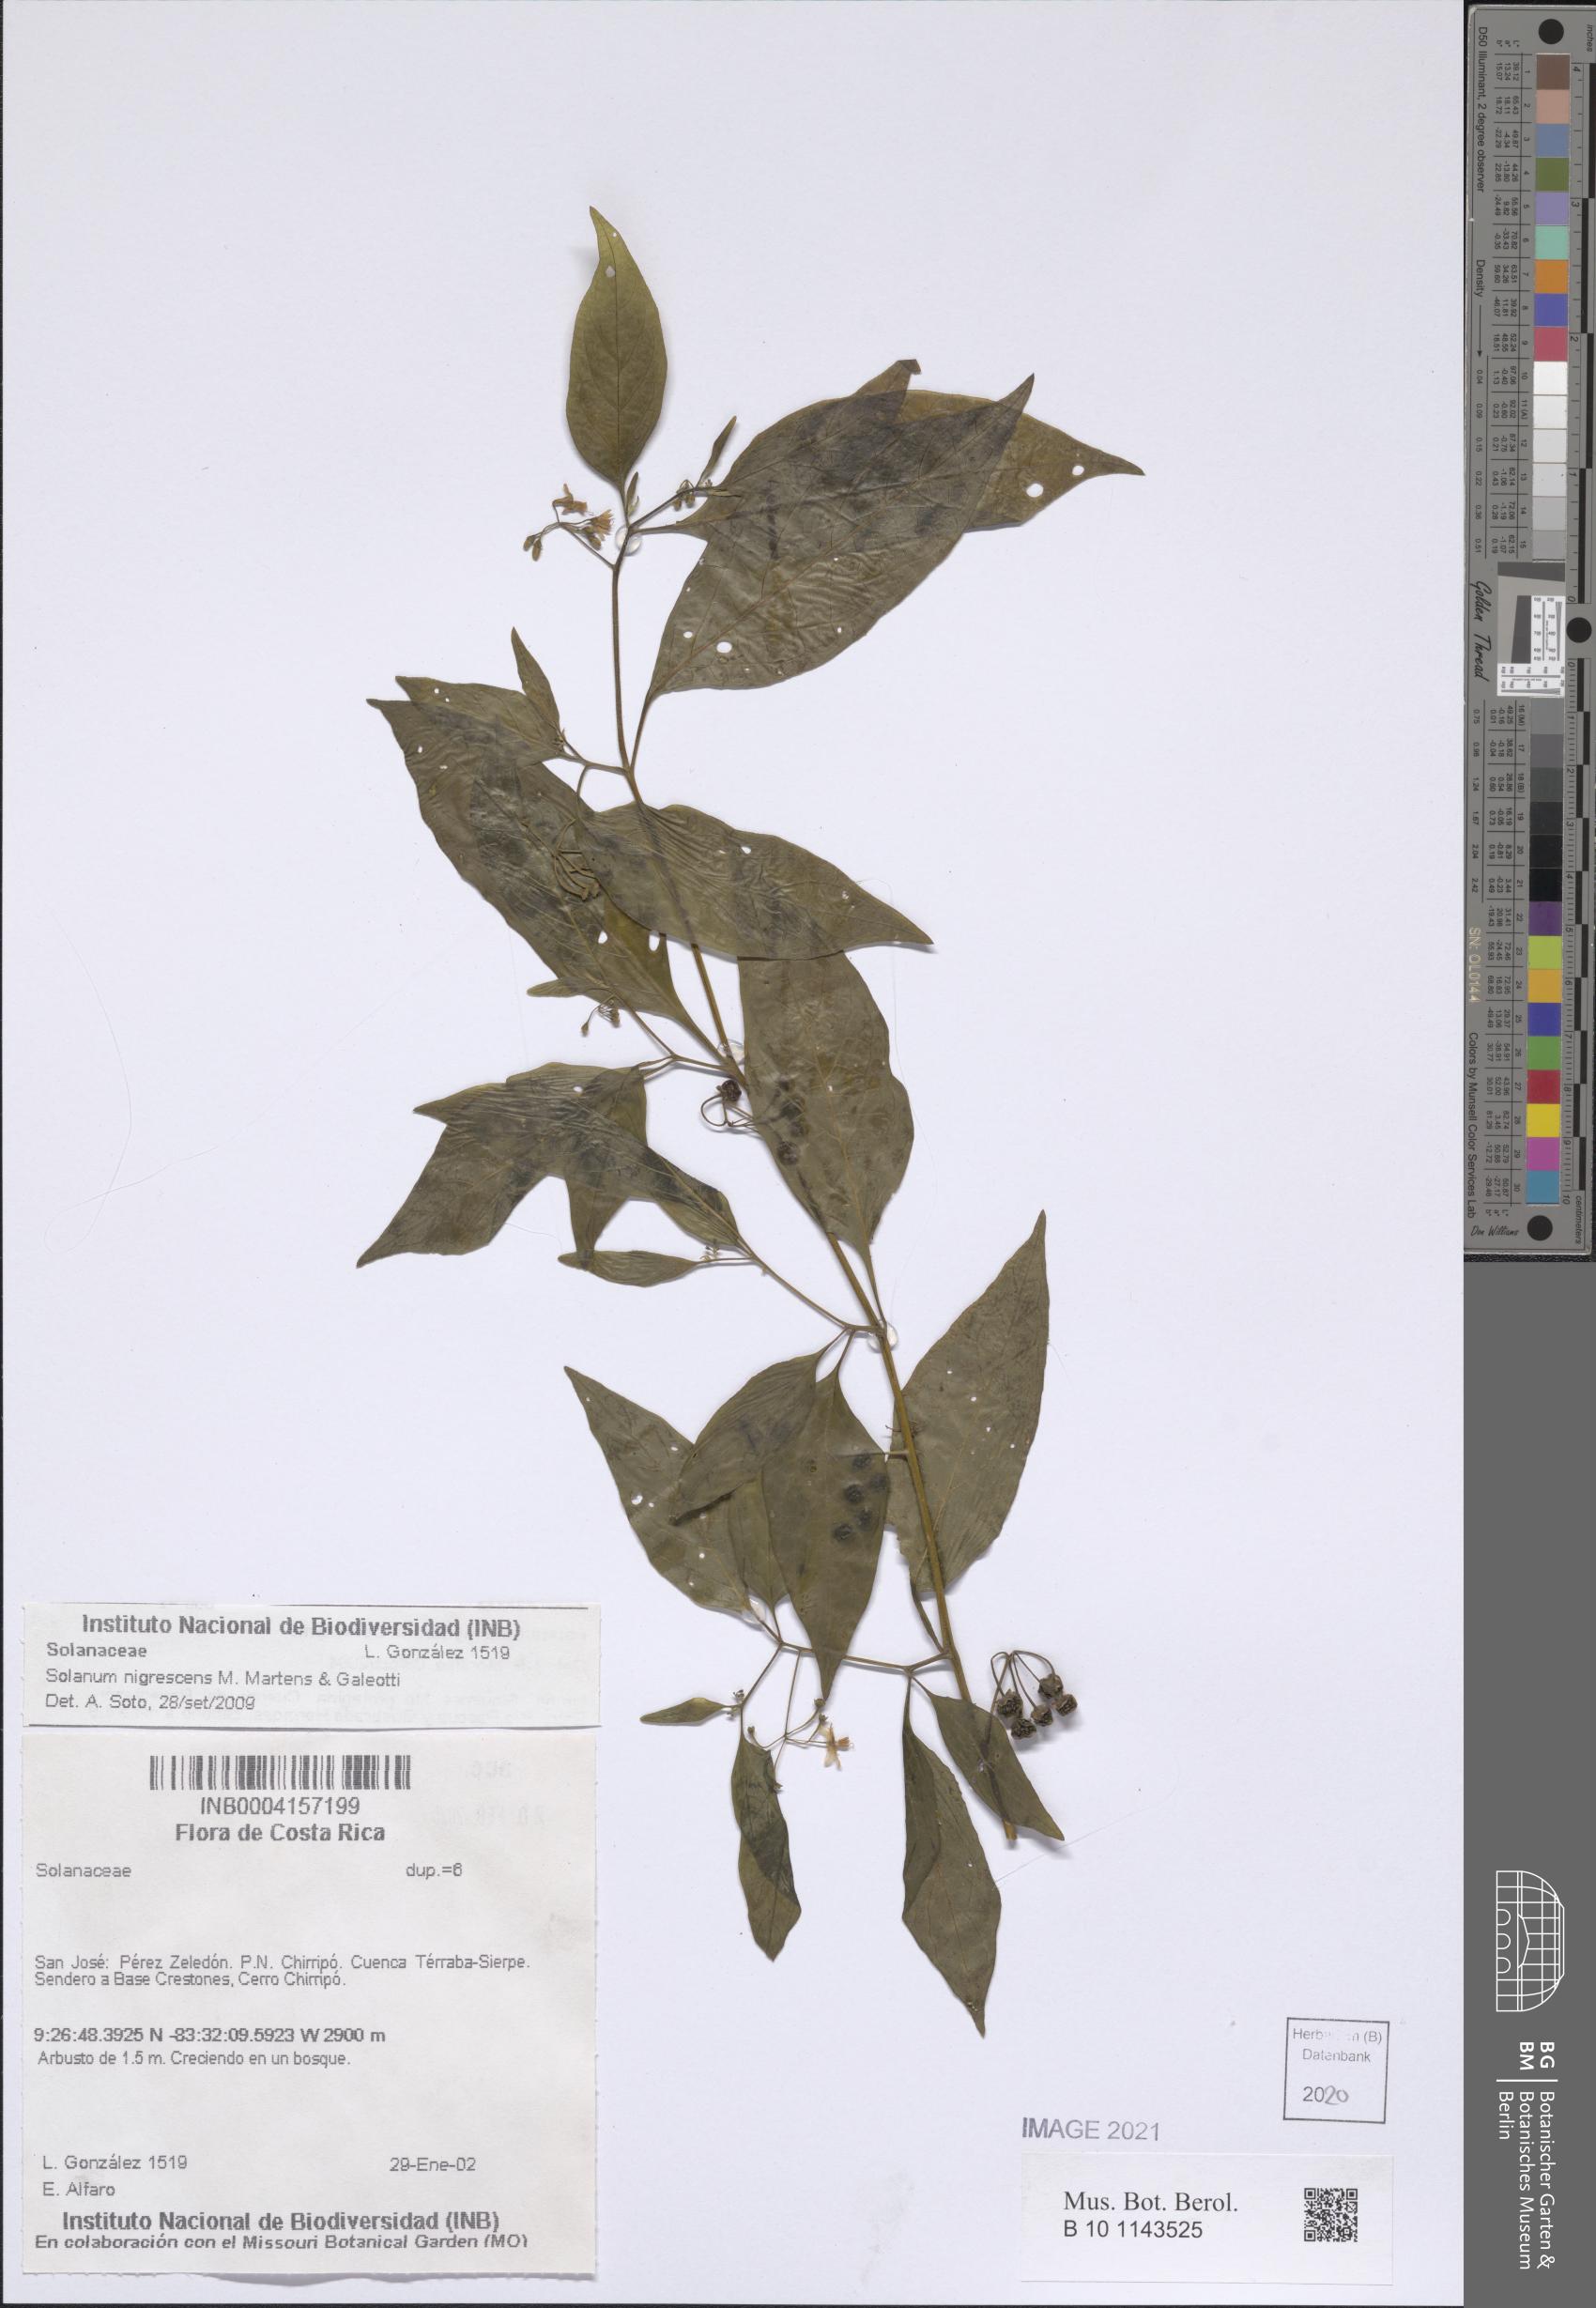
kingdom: Plantae
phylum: Tracheophyta
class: Magnoliopsida
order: Solanales
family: Solanaceae
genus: Solanum
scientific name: Solanum nigrescens
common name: Divine nightshade
